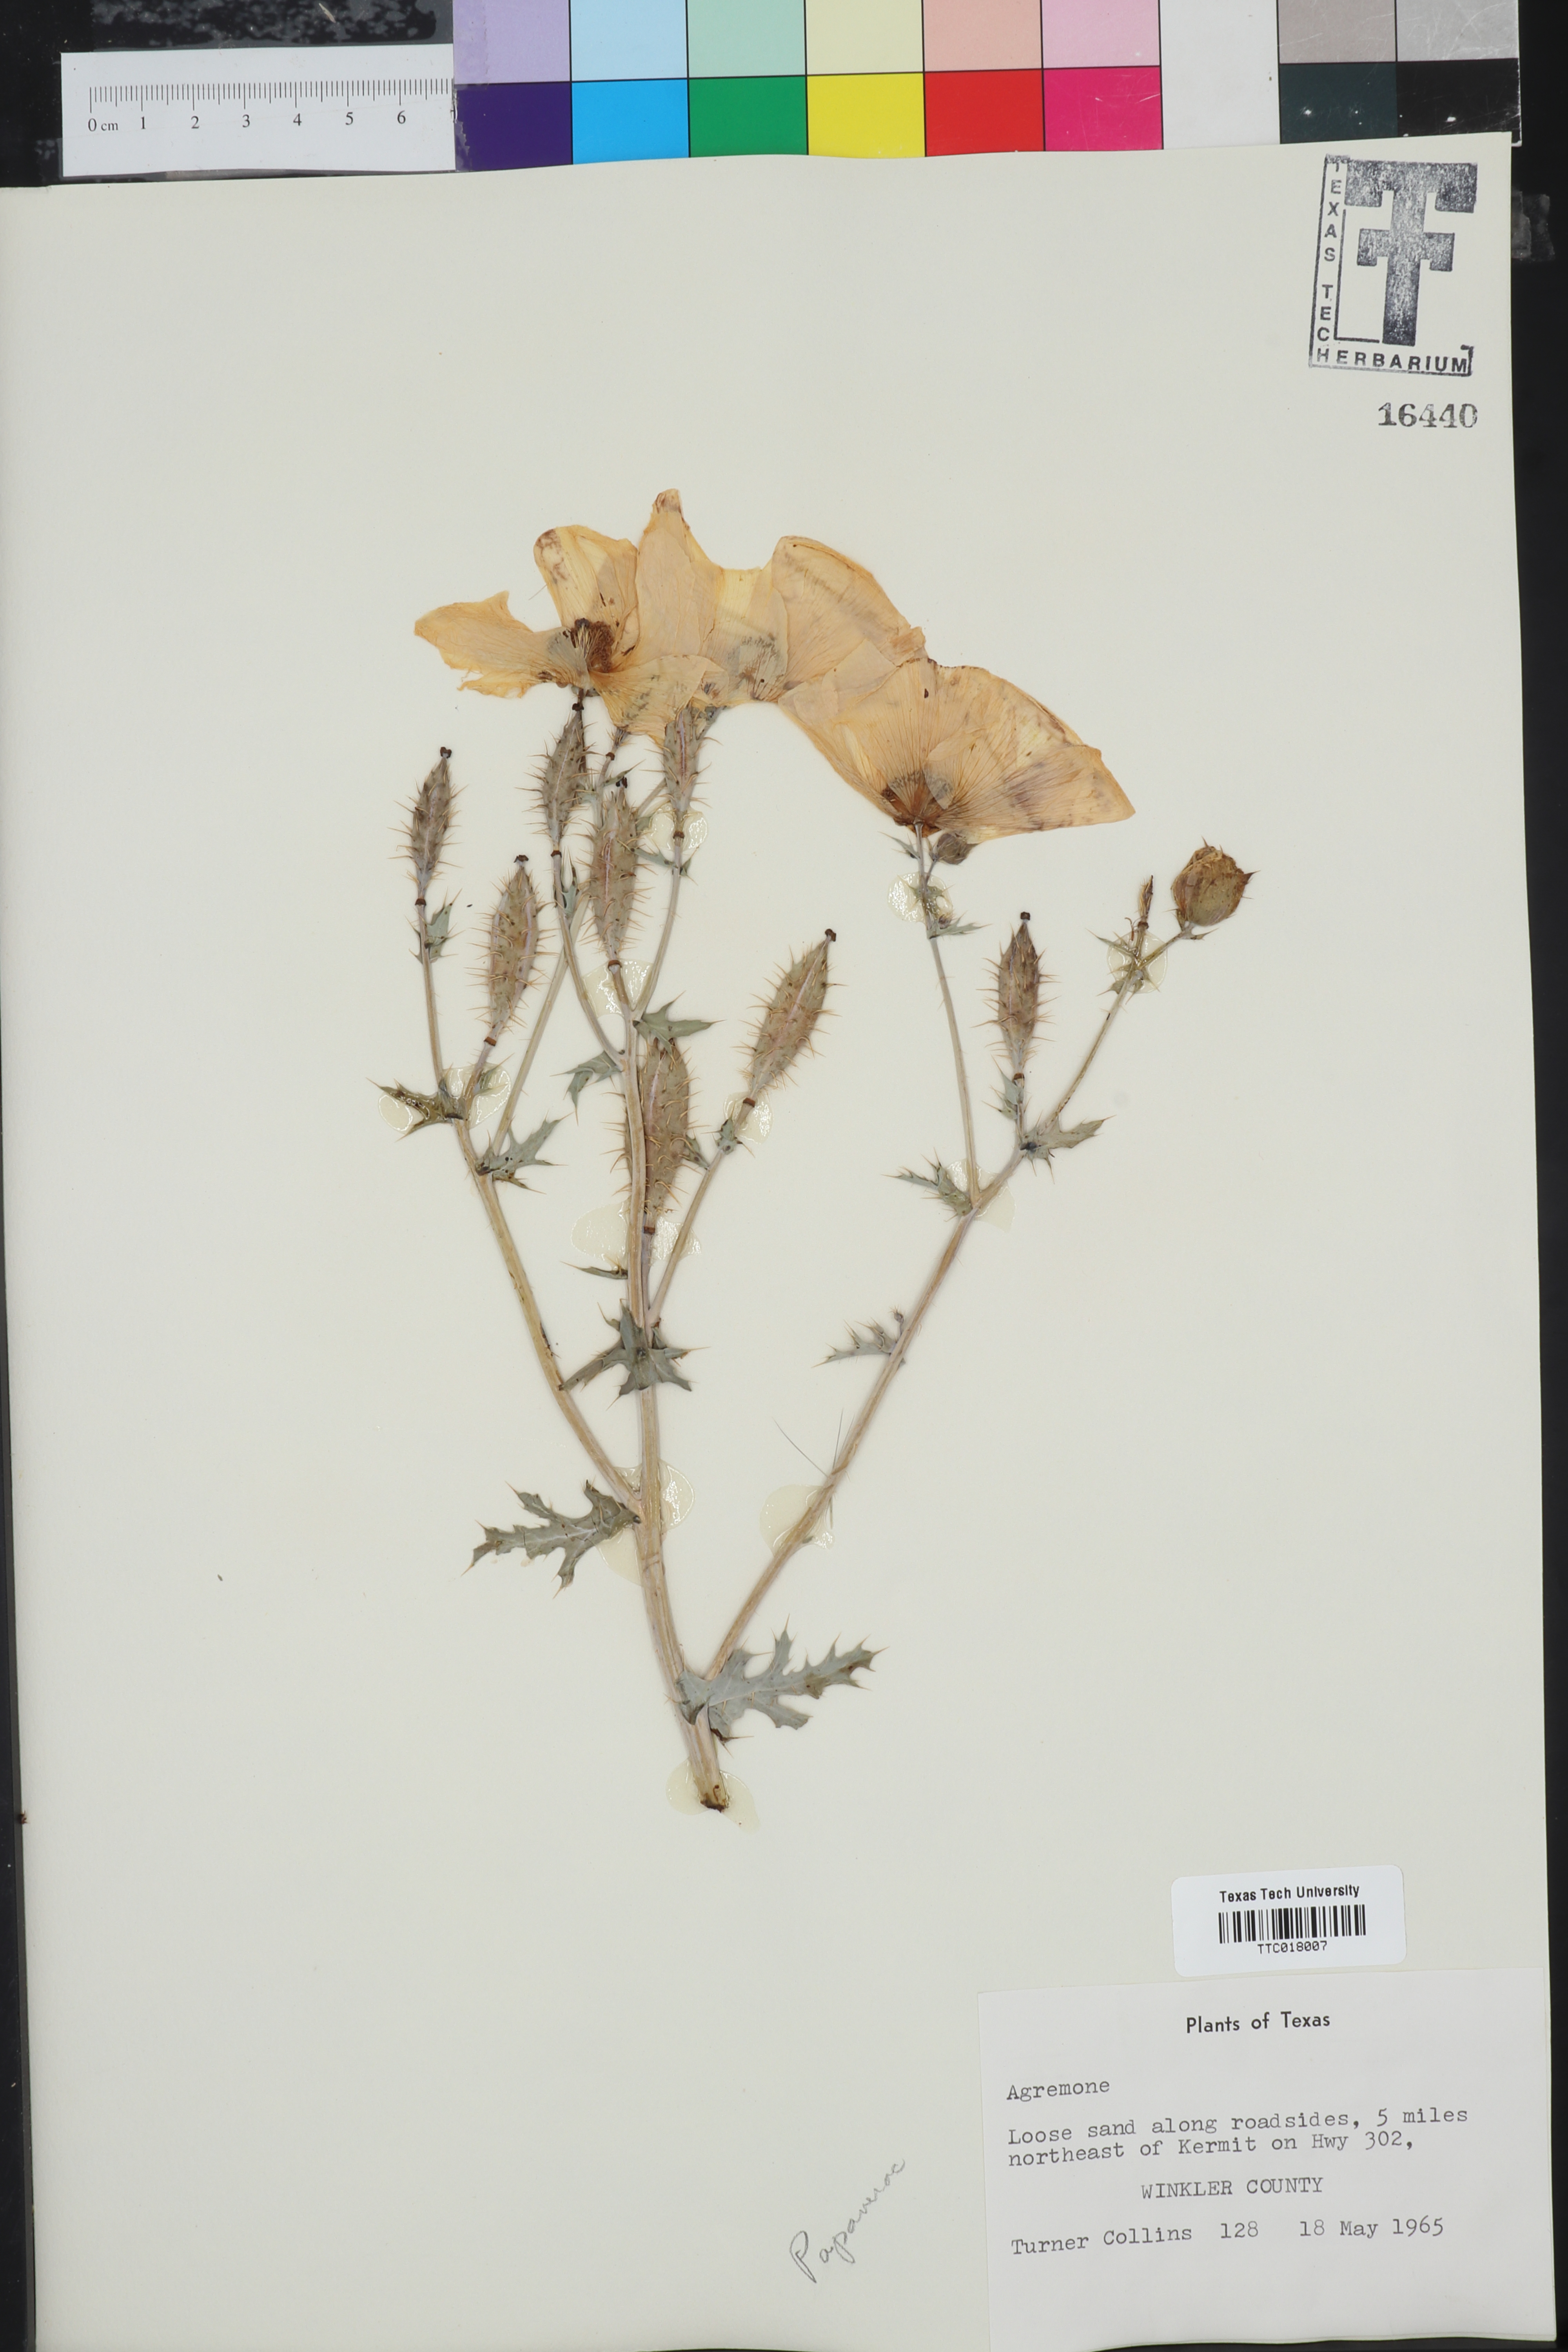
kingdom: Plantae
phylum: Tracheophyta
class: Magnoliopsida
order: Ranunculales
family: Papaveraceae
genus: Argemone
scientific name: Argemone platyceras
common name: Crested-poppy
